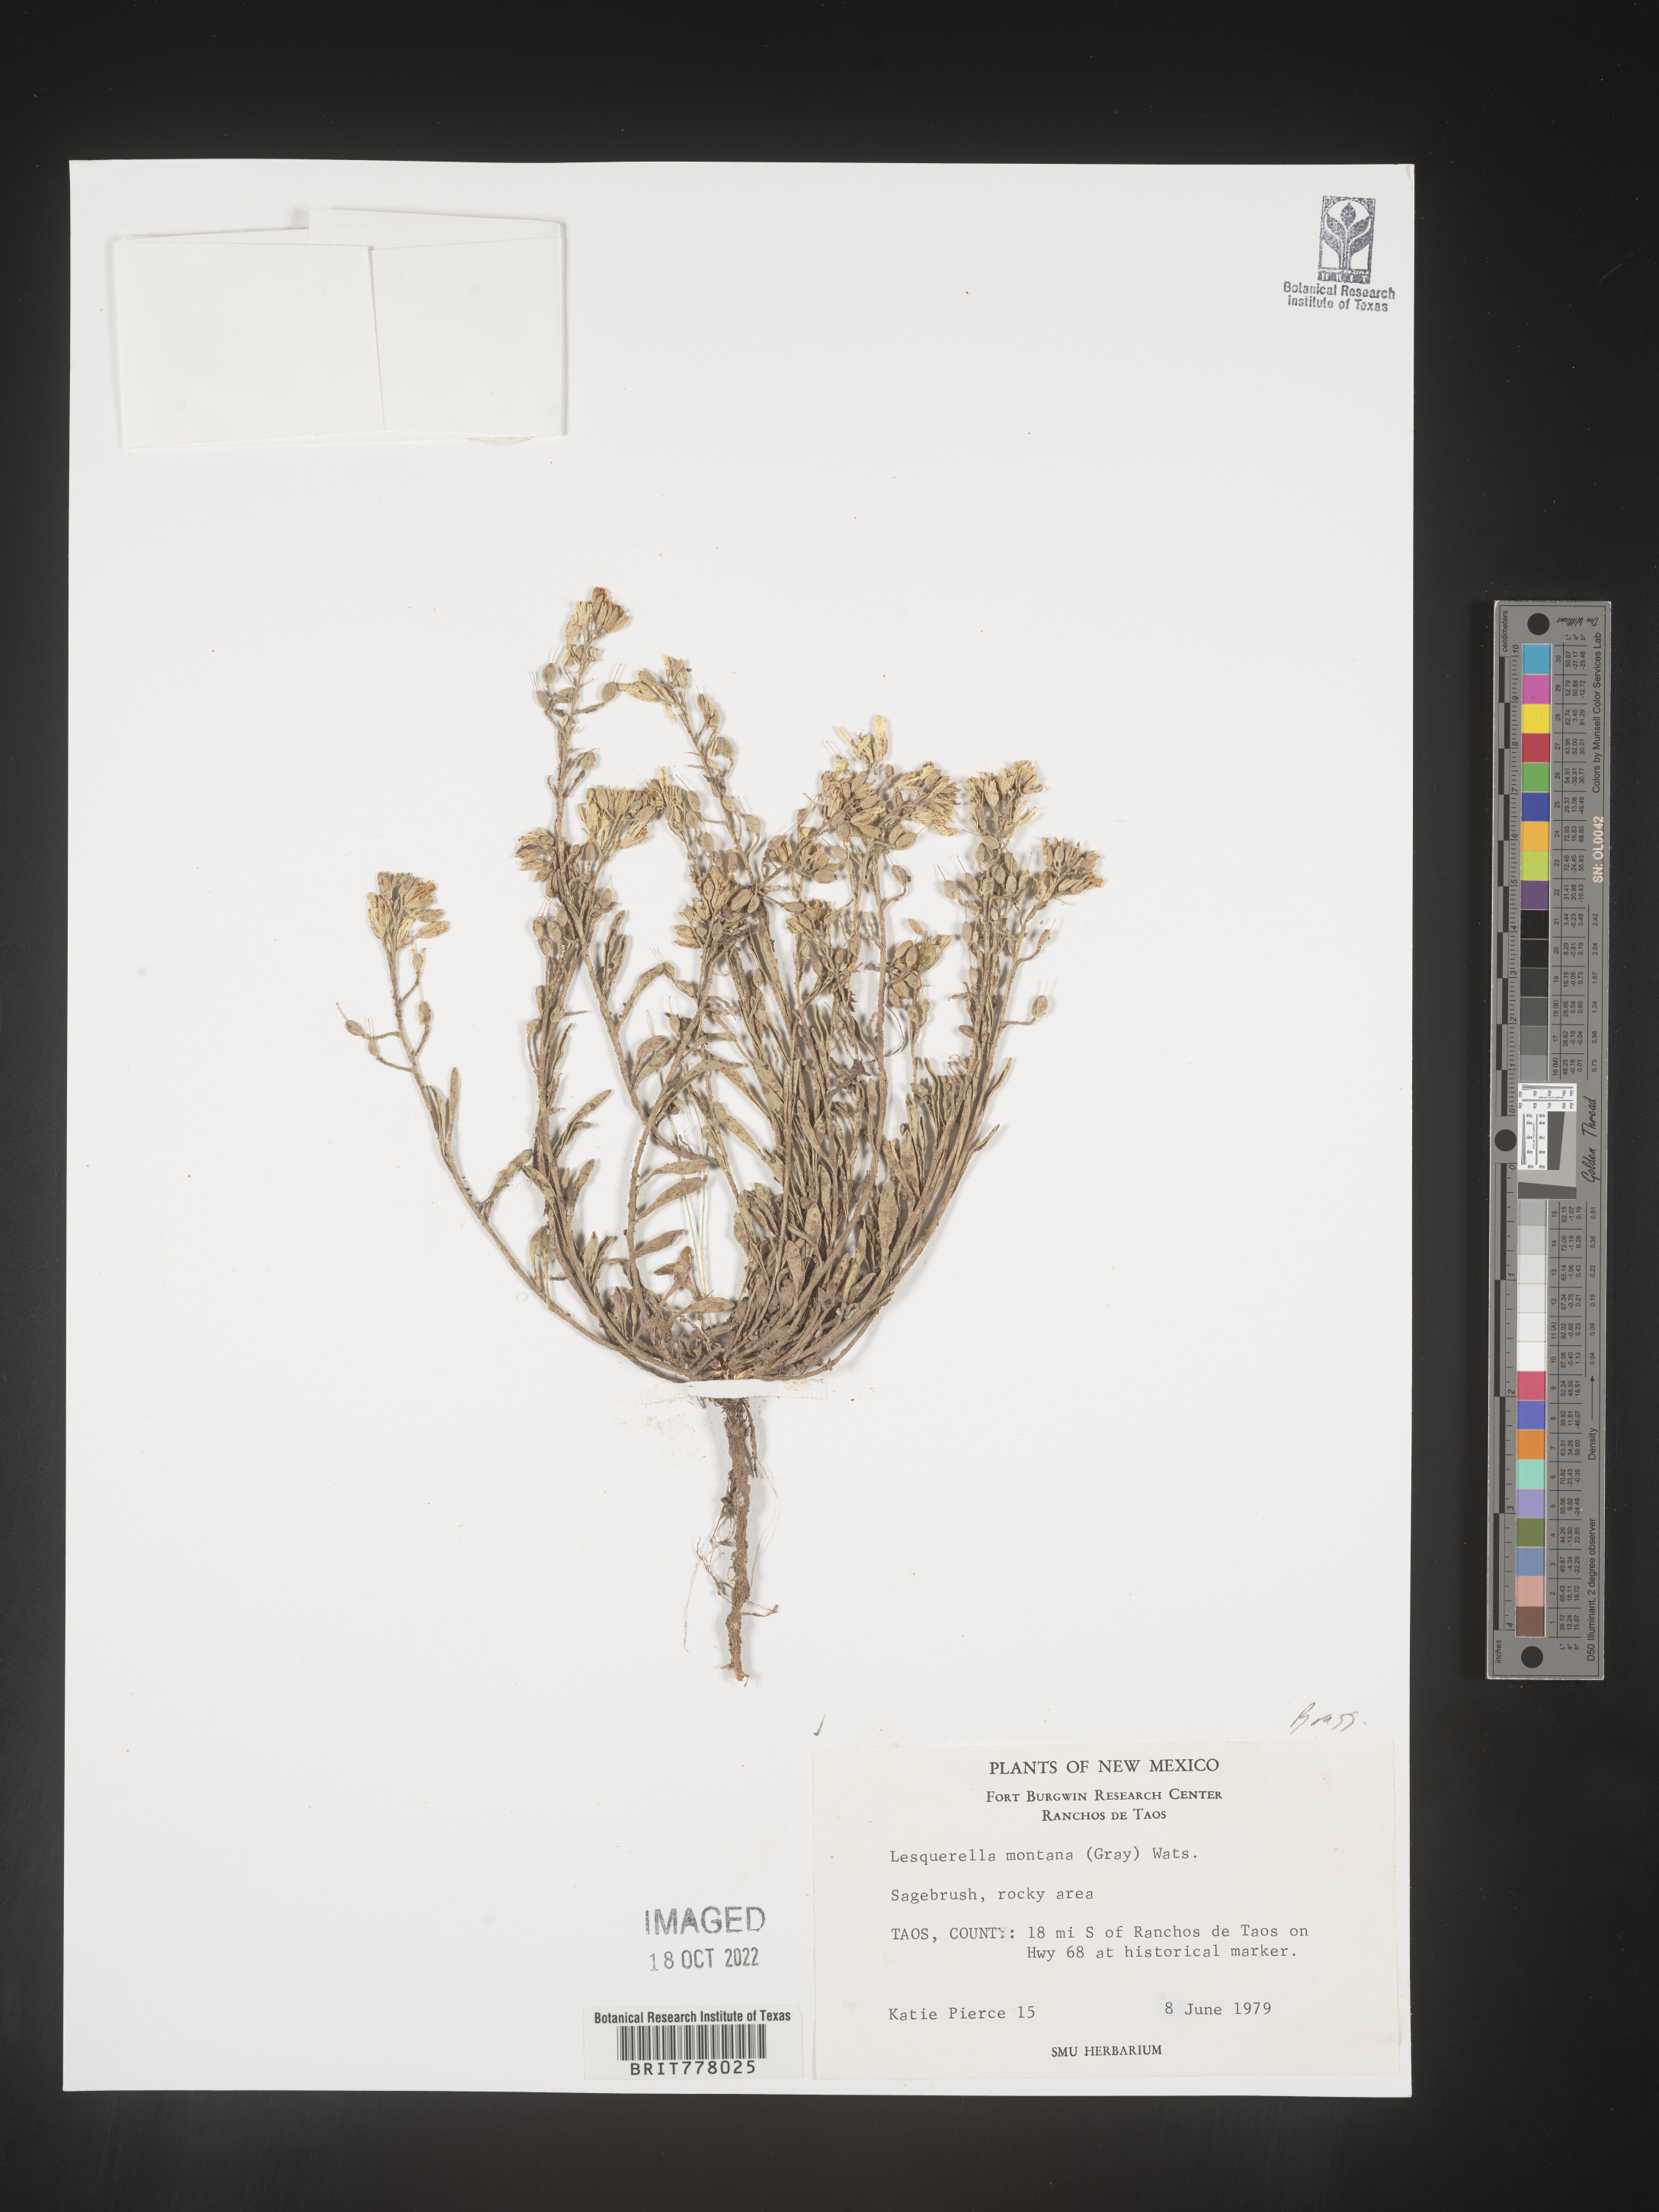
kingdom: Chromista
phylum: Cercozoa
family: Psammonobiotidae
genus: Lesquerella
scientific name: Lesquerella
